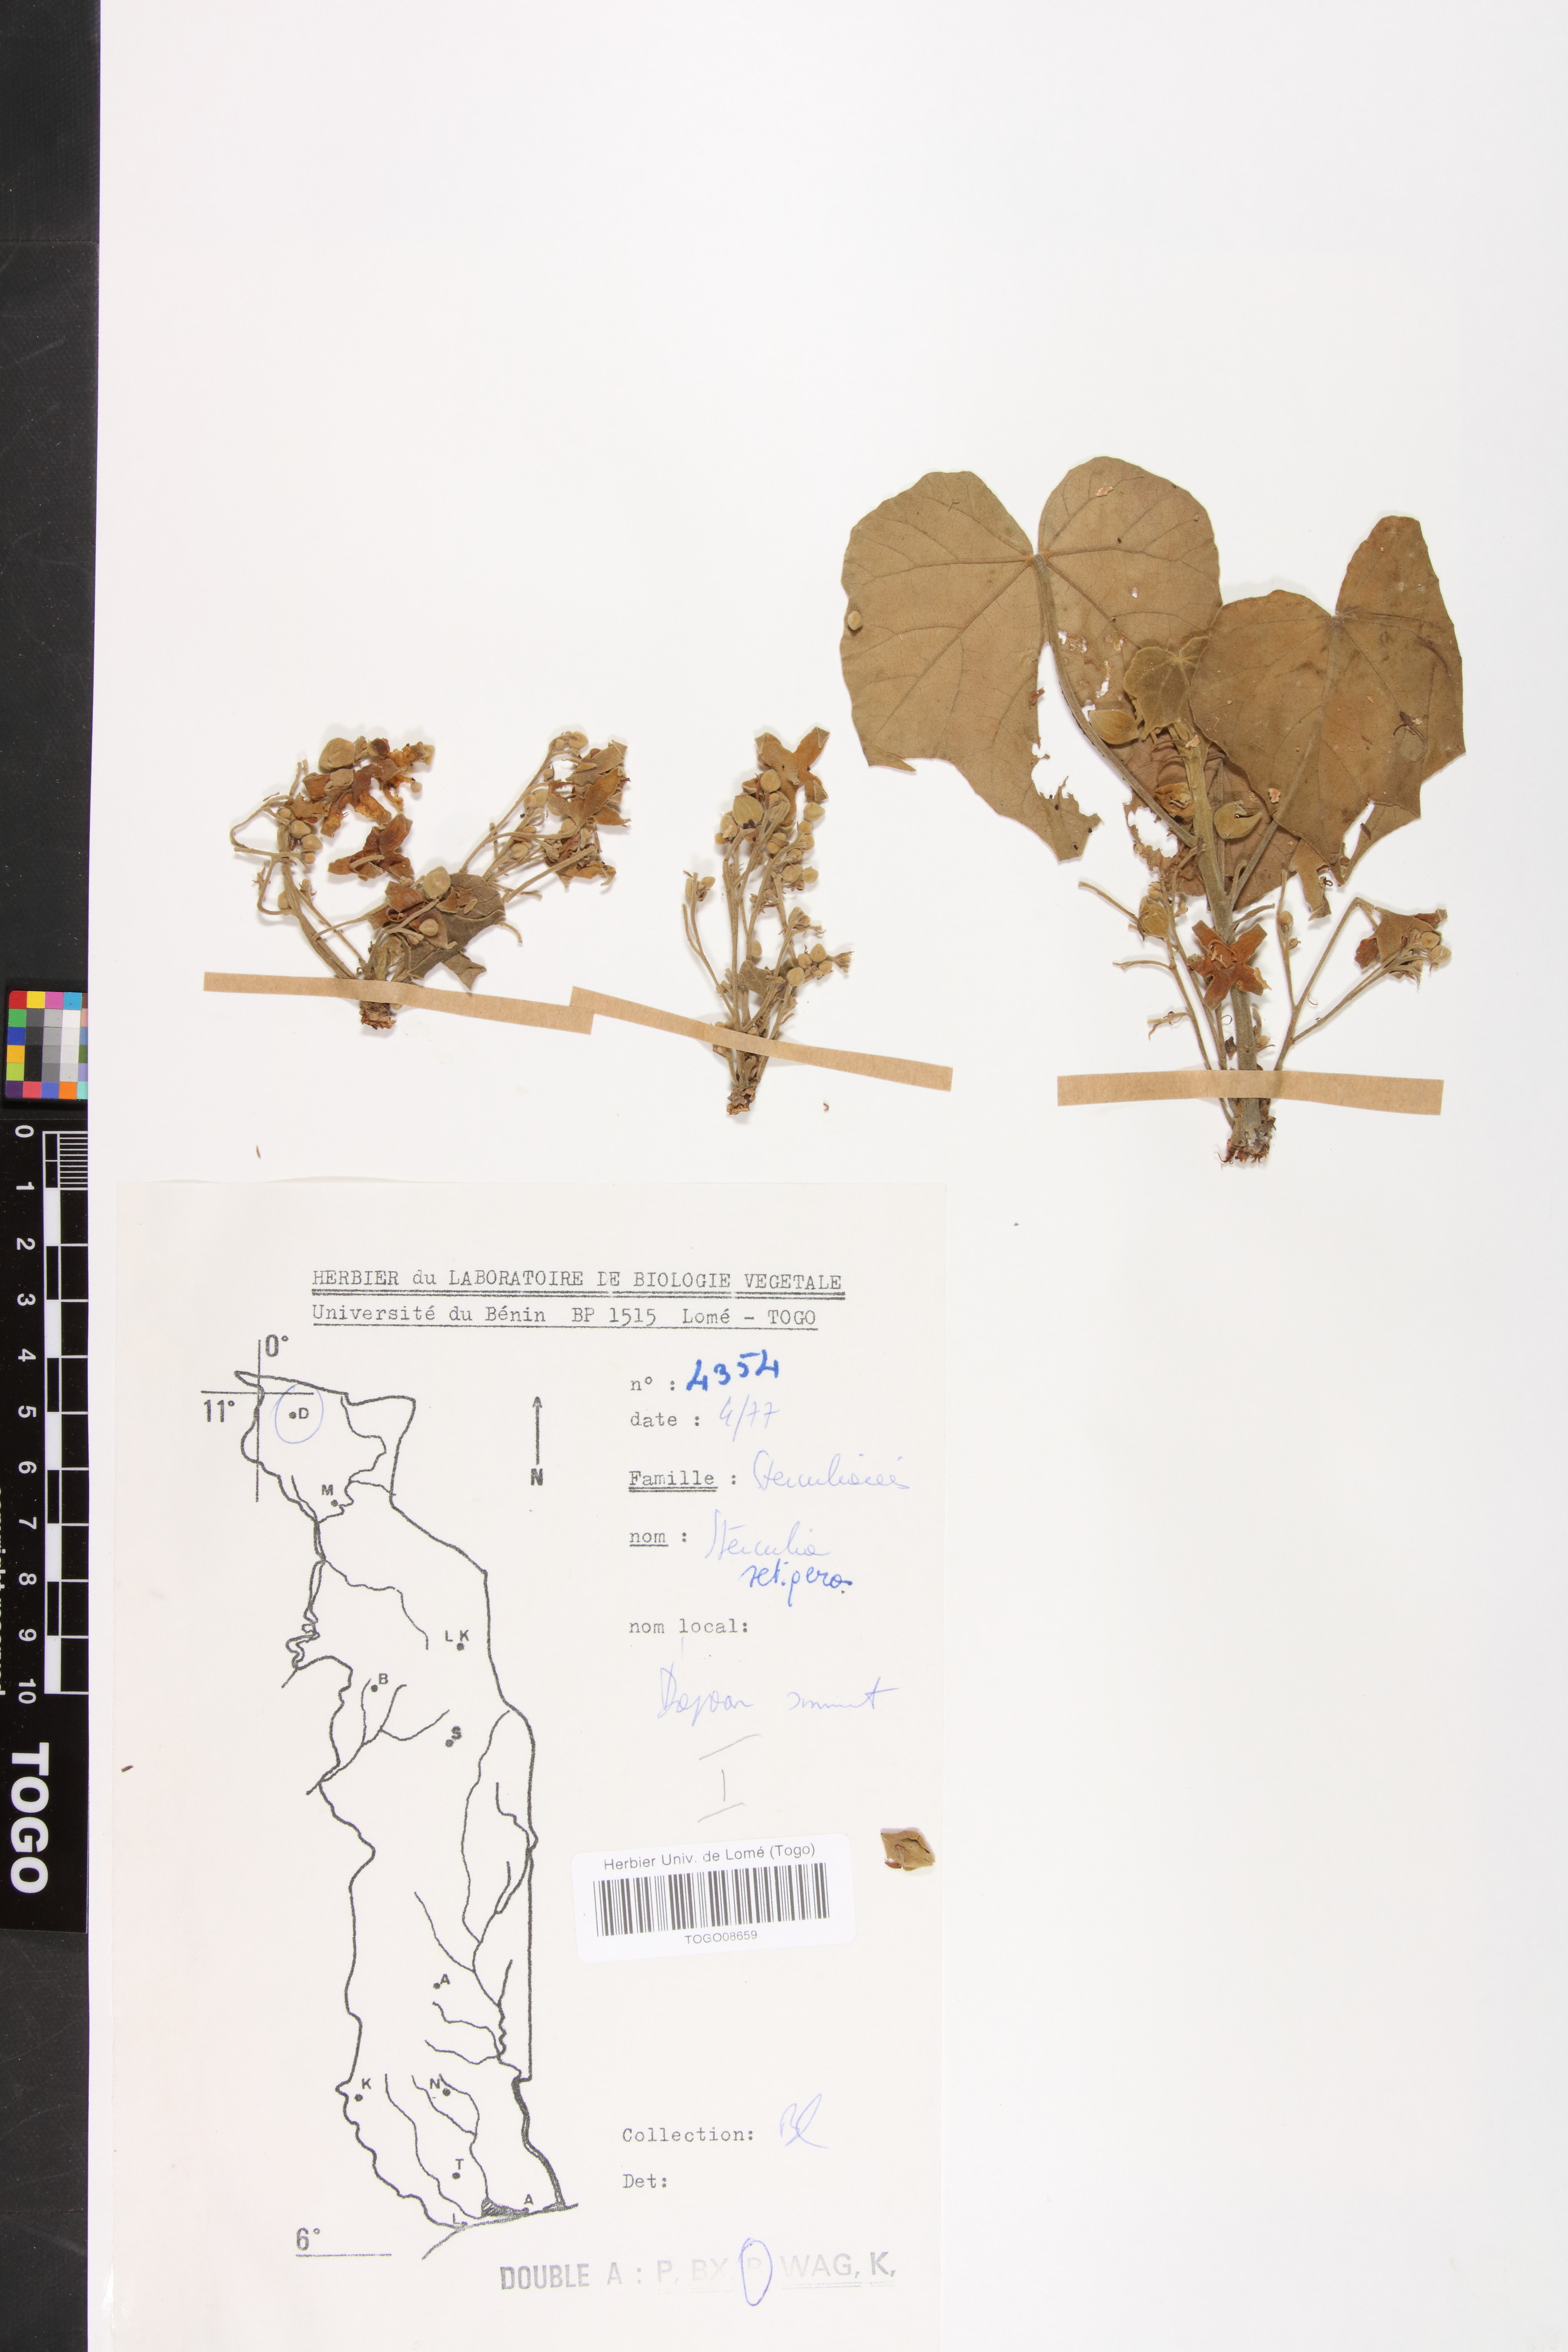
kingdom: Plantae
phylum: Tracheophyta
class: Magnoliopsida
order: Malvales
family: Malvaceae
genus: Sterculia
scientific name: Sterculia setigera
